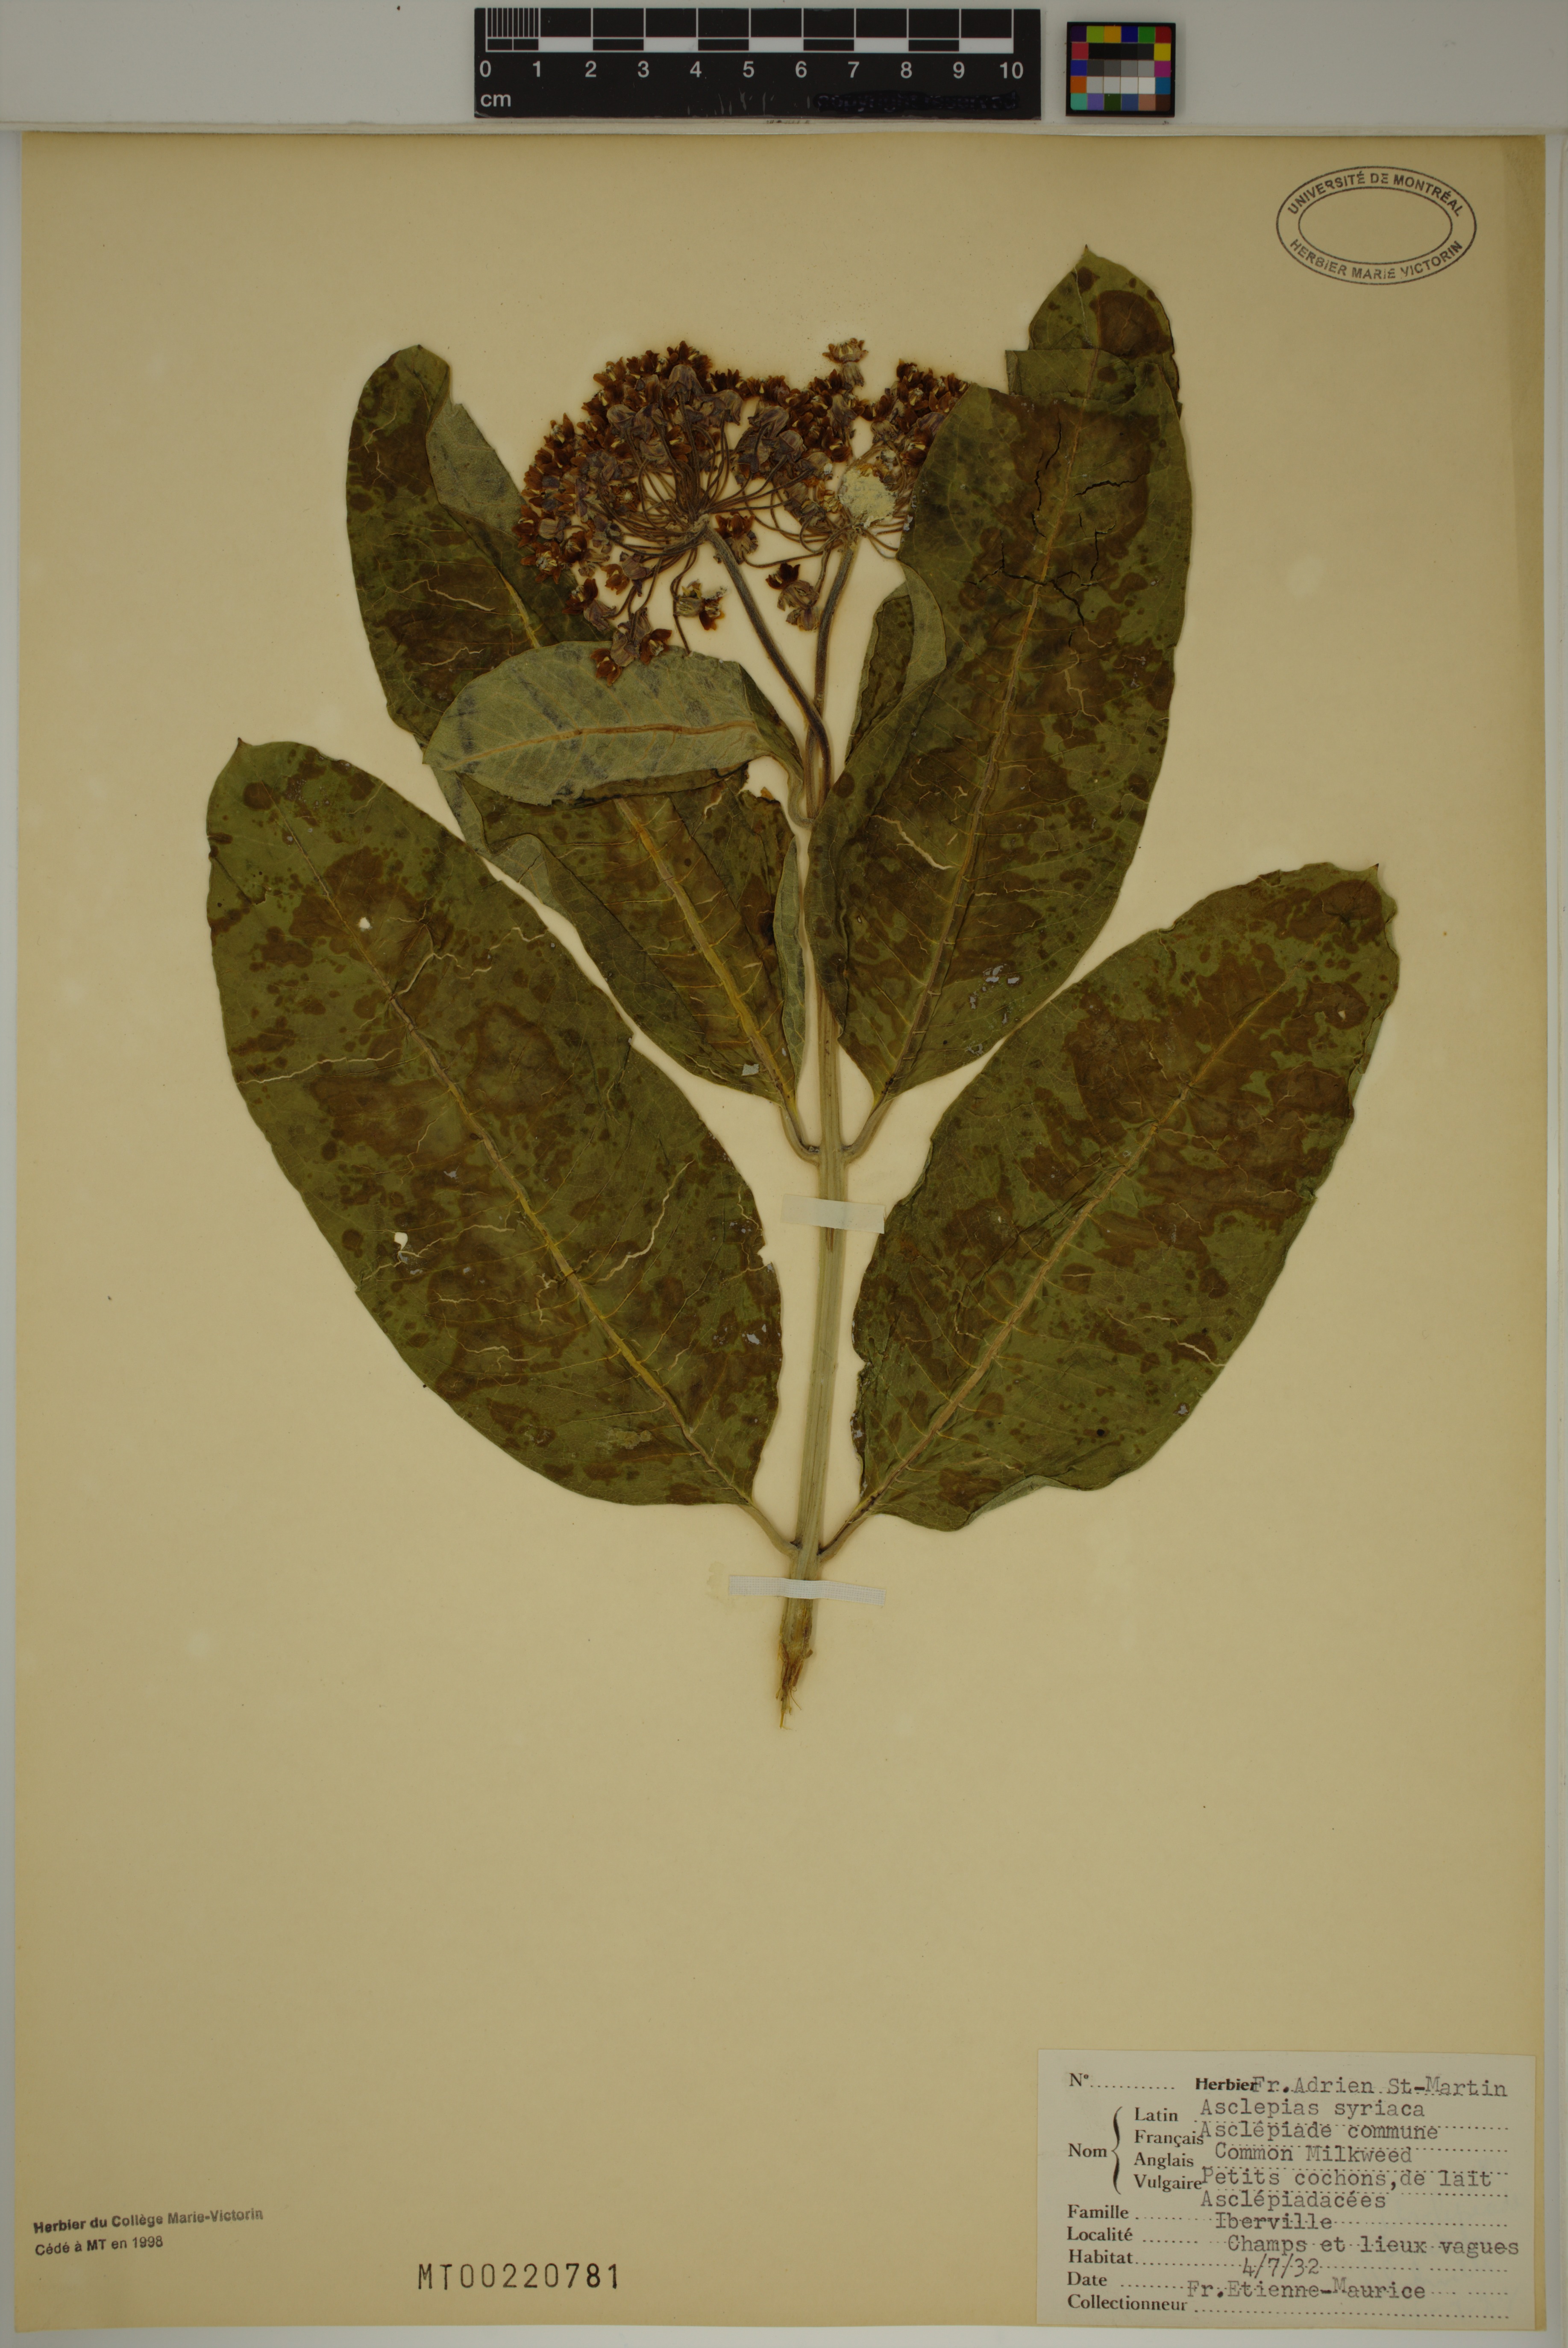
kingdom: Plantae
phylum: Tracheophyta
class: Magnoliopsida
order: Gentianales
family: Apocynaceae
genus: Asclepias
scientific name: Asclepias syriaca
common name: Common milkweed
